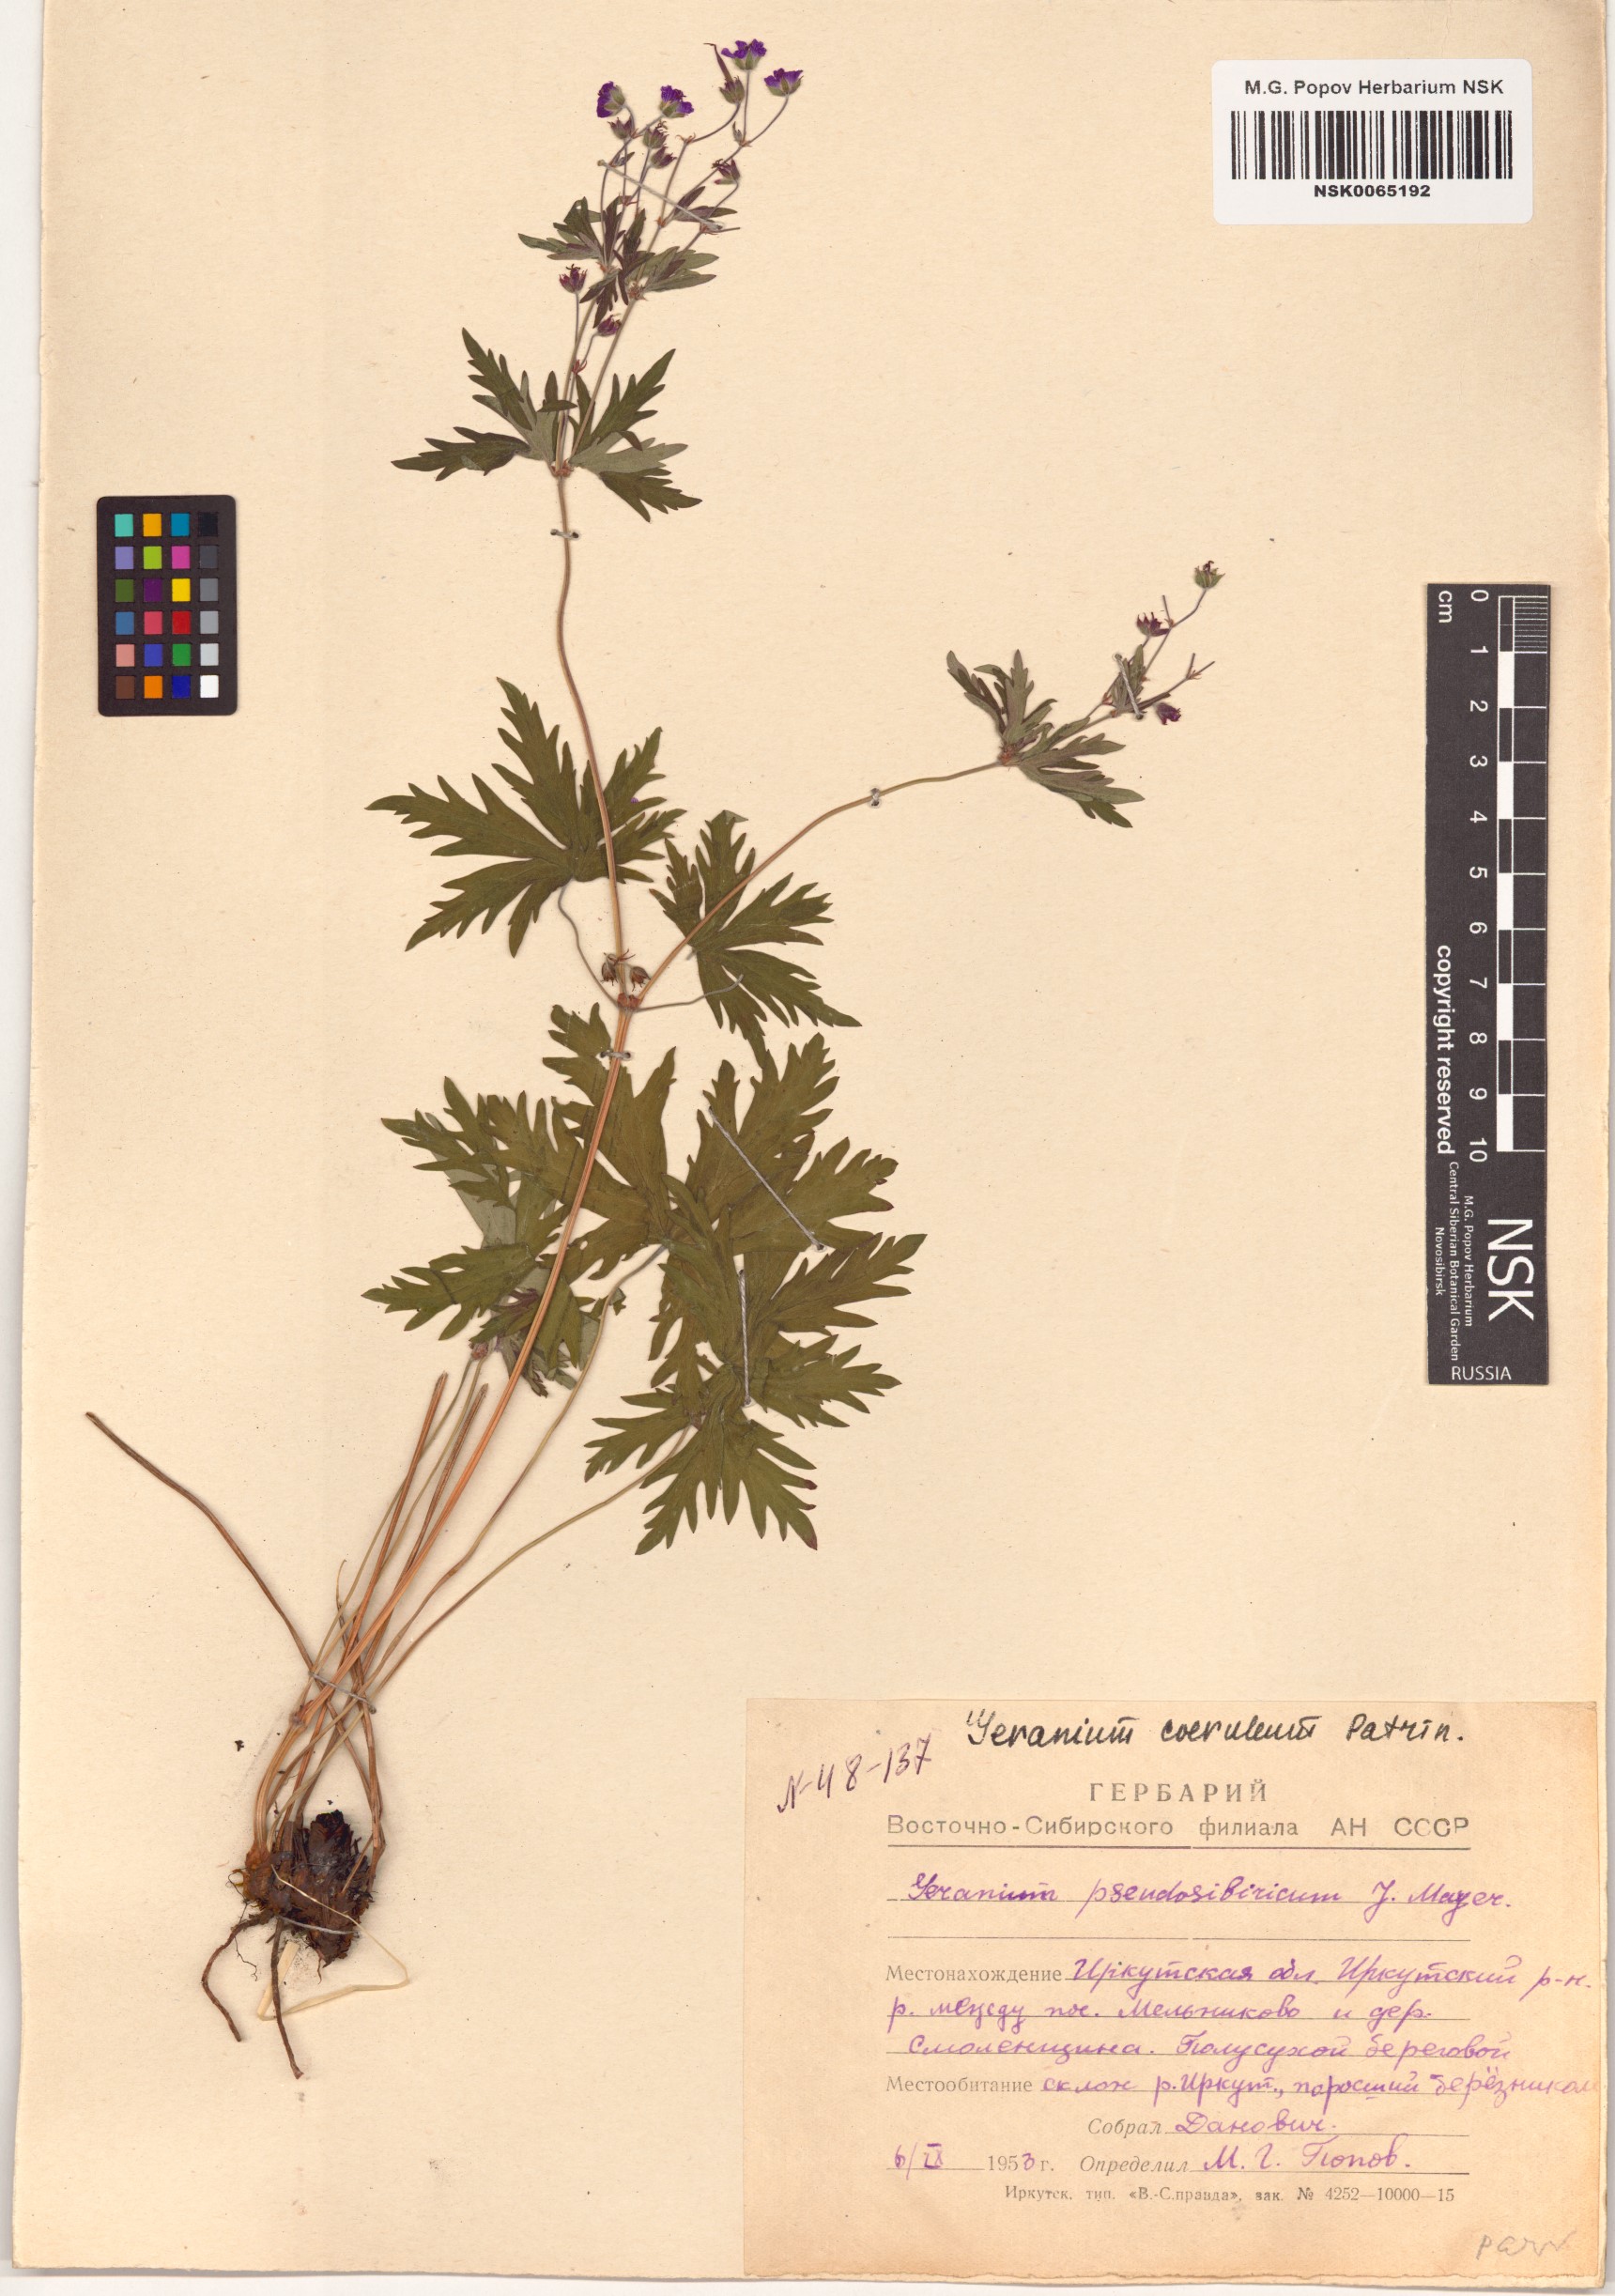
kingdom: Plantae
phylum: Tracheophyta
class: Magnoliopsida
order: Geraniales
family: Geraniaceae
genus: Geranium
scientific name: Geranium pseudosibiricum
